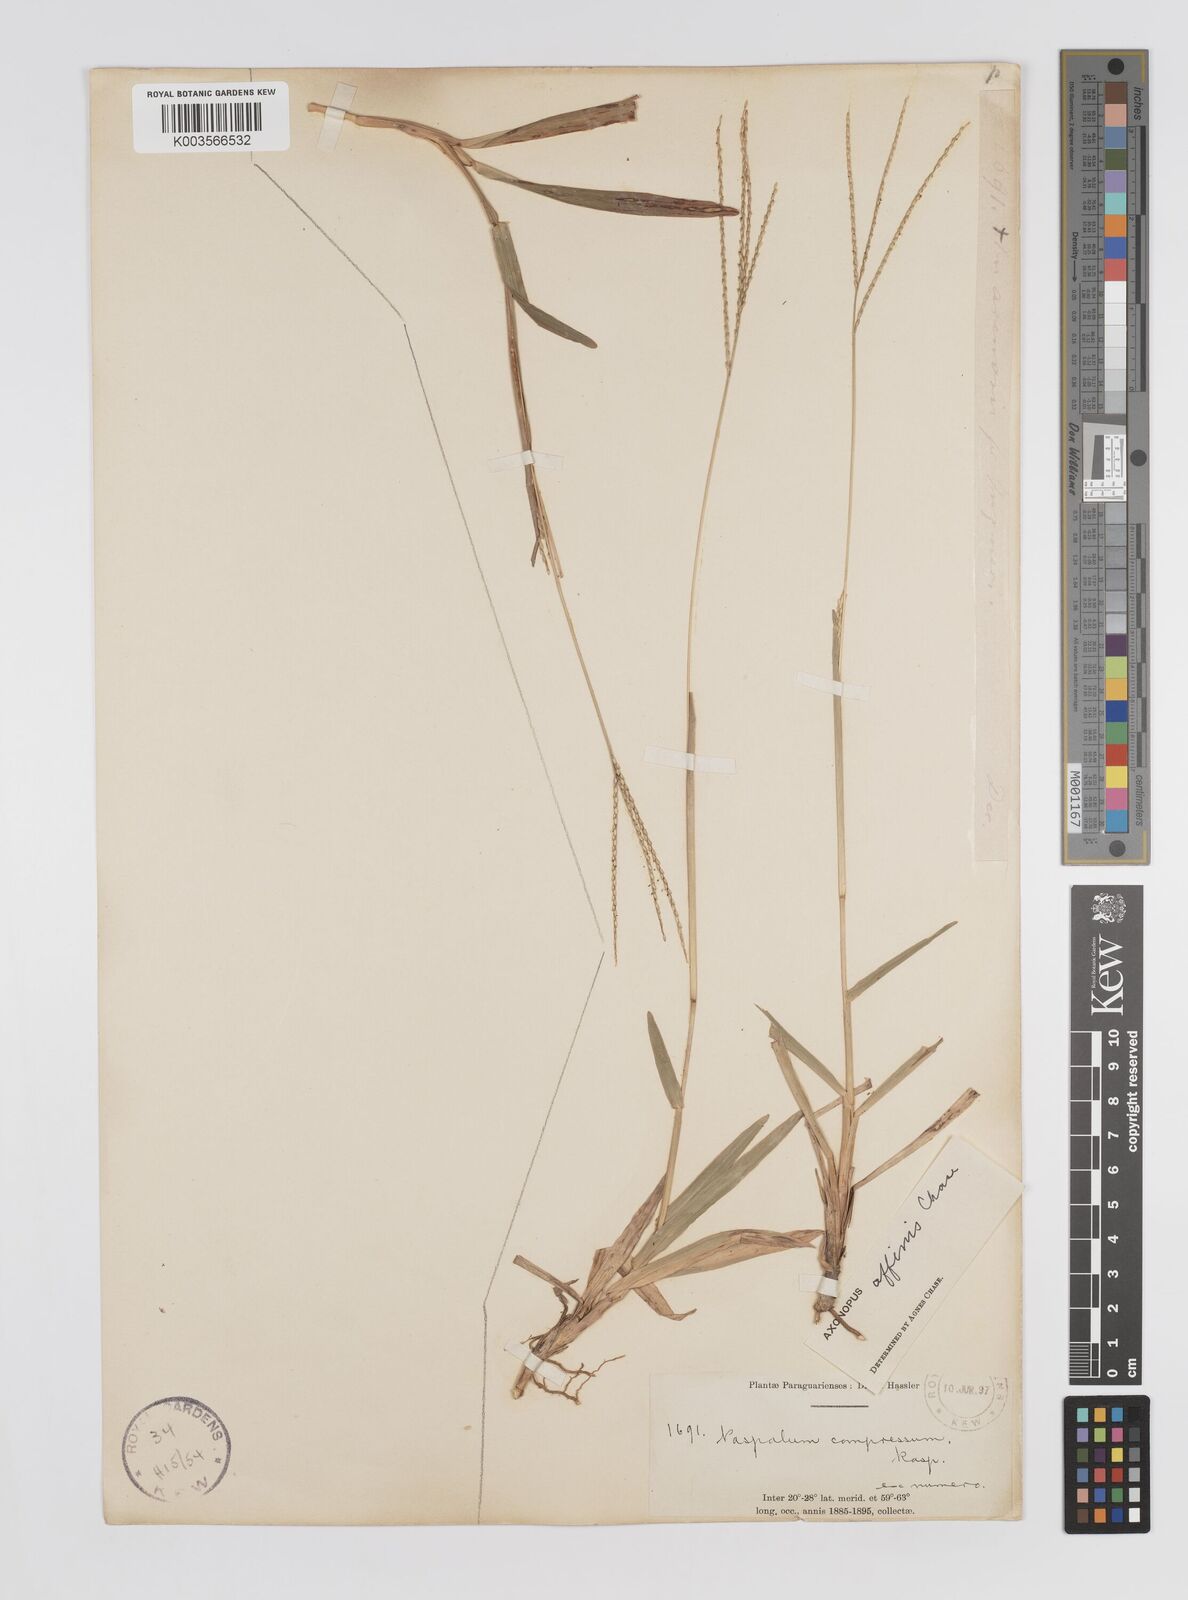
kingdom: Plantae
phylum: Tracheophyta
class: Liliopsida
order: Poales
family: Poaceae
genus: Axonopus
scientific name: Axonopus fissifolius
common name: Common carpetgrass
